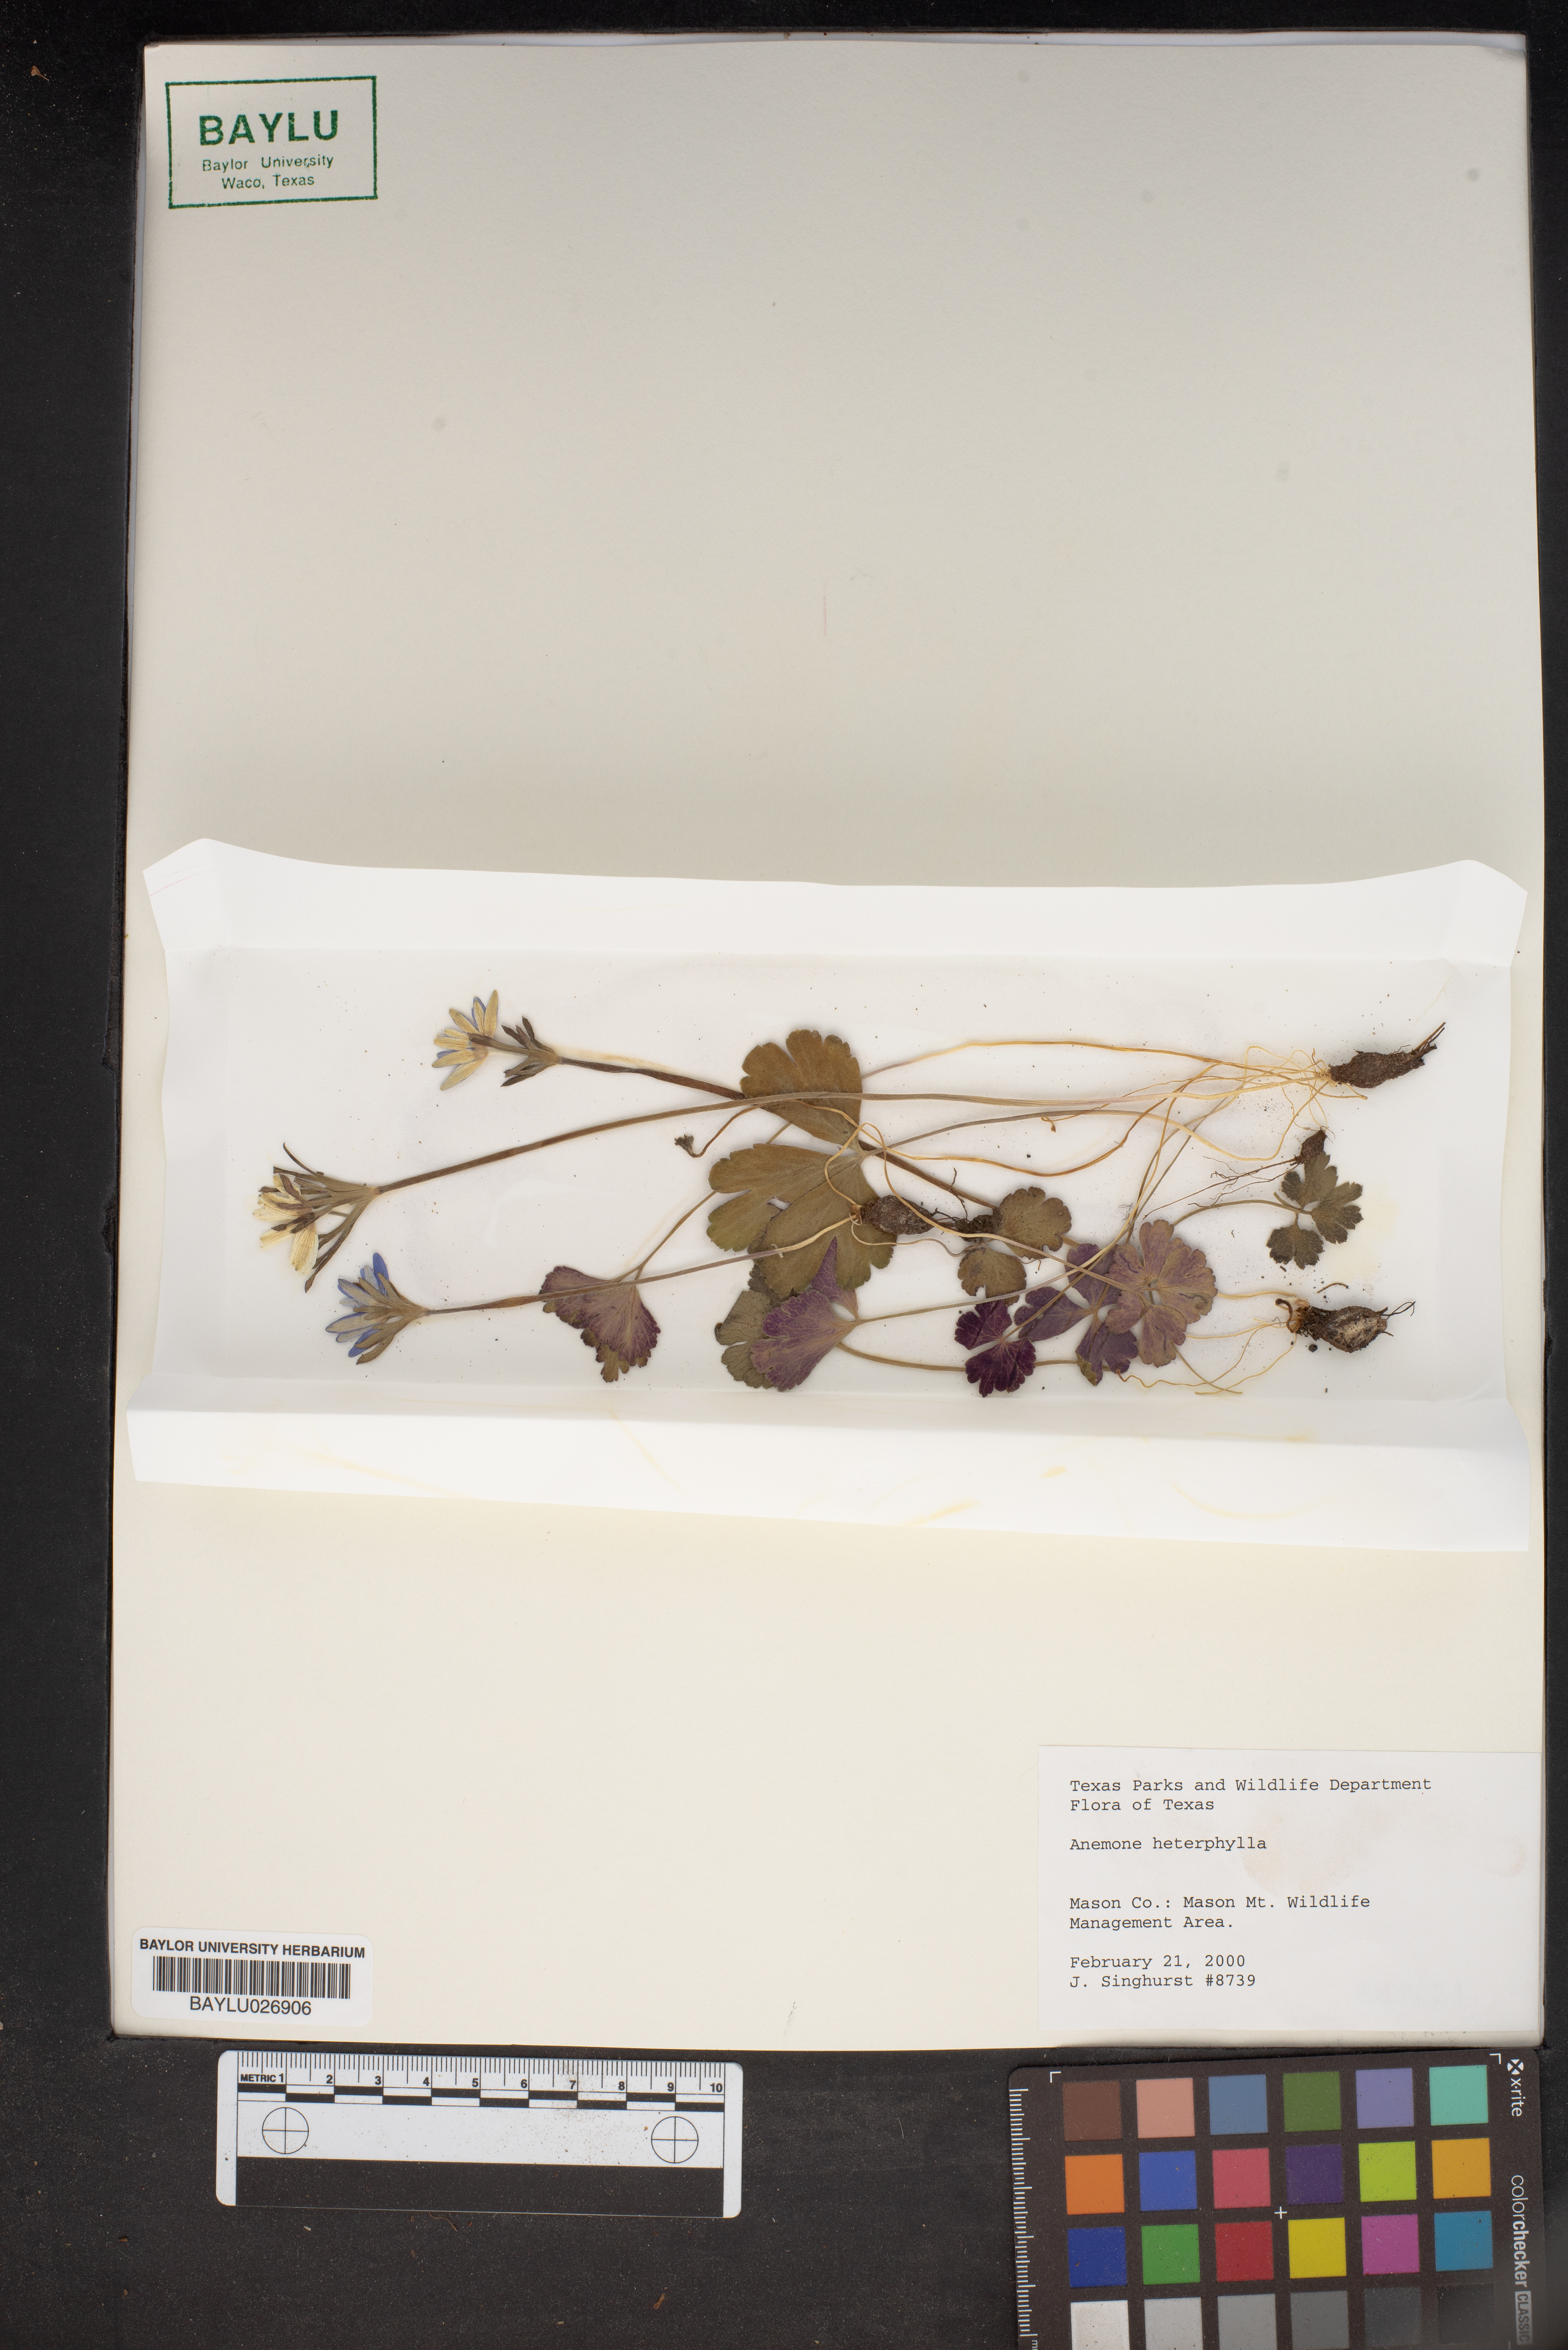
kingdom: Plantae
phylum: Tracheophyta
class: Magnoliopsida
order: Ranunculales
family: Ranunculaceae
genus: Anemone
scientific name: Anemone heterophylla
